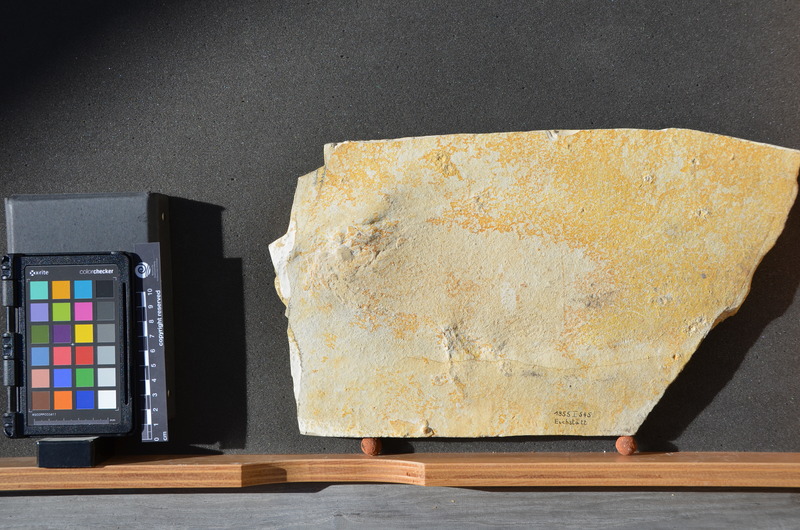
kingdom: Animalia
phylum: Chordata
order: Amiiformes
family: Caturidae
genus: Caturus
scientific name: Caturus furcatus
